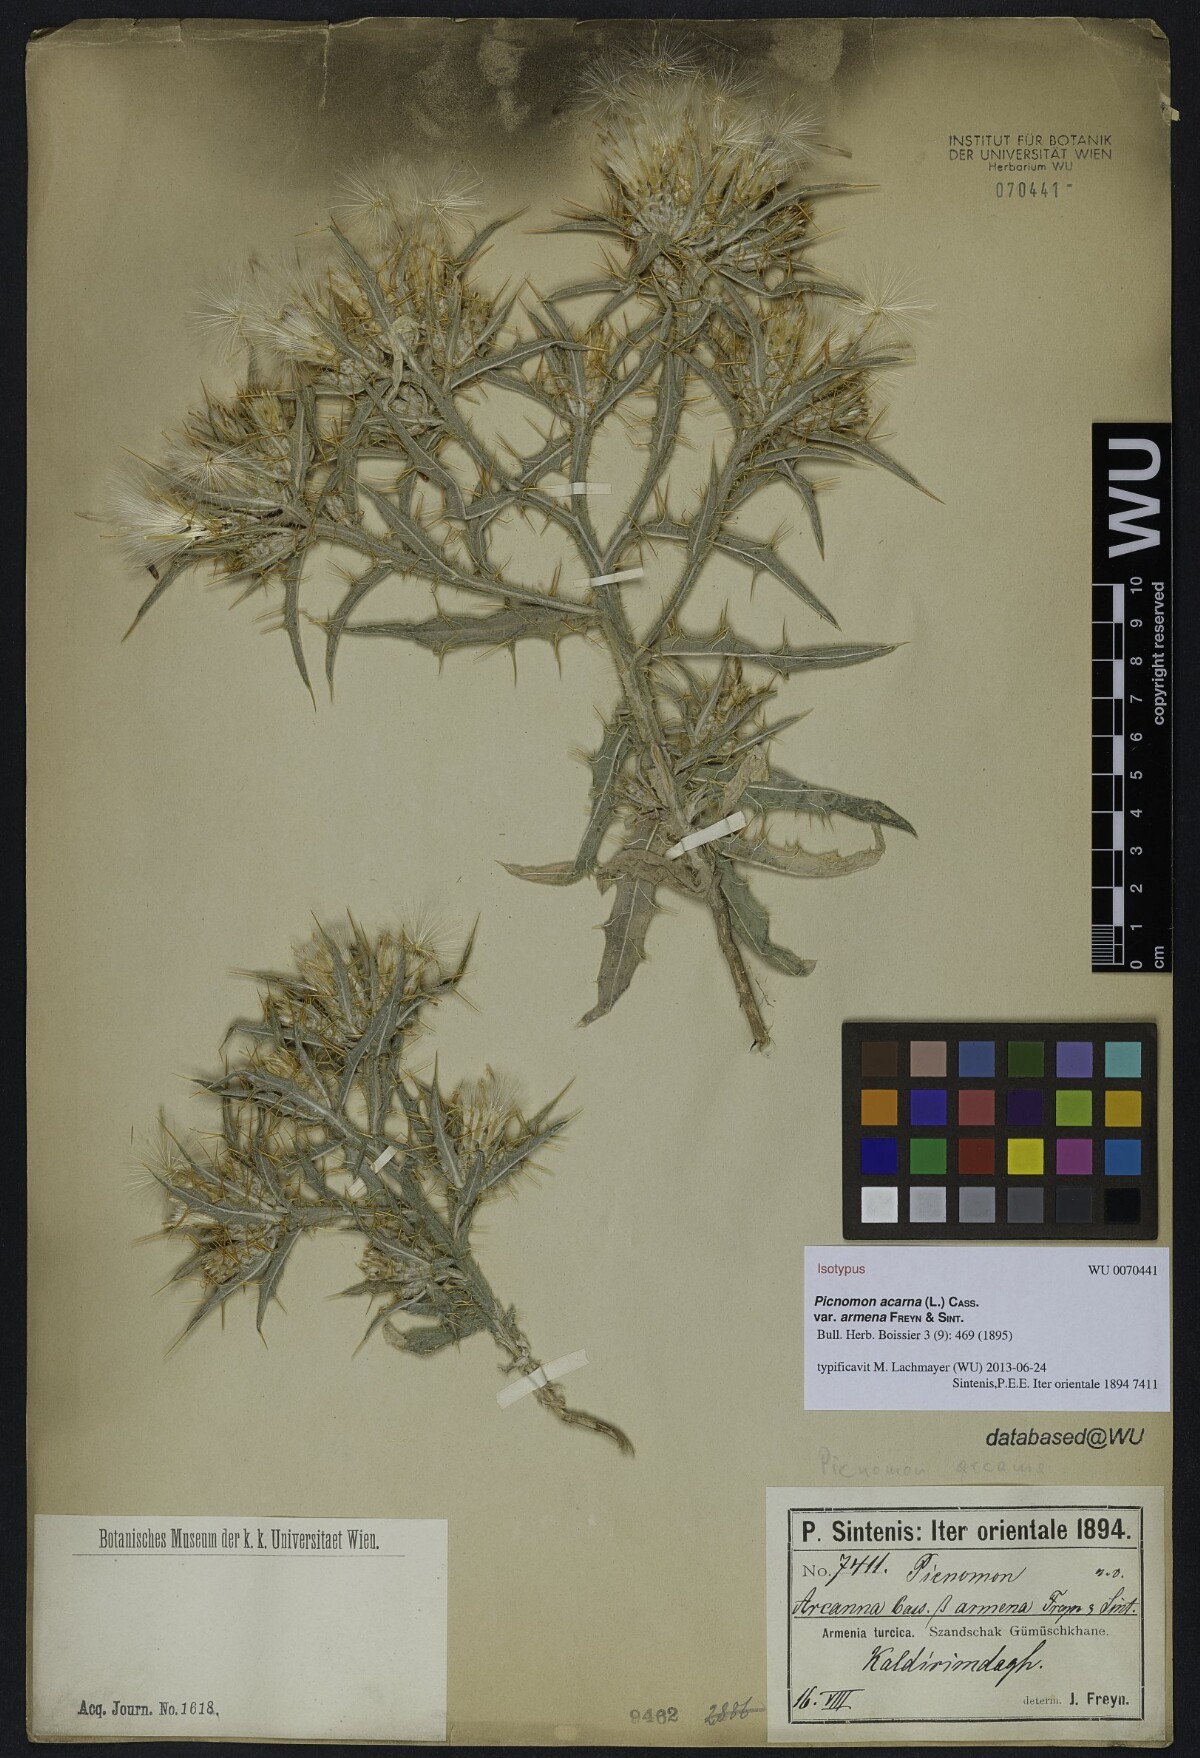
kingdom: Plantae
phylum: Tracheophyta
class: Magnoliopsida
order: Asterales
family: Asteraceae
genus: Picnomon
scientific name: Picnomon acarna
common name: Soldier thistle
